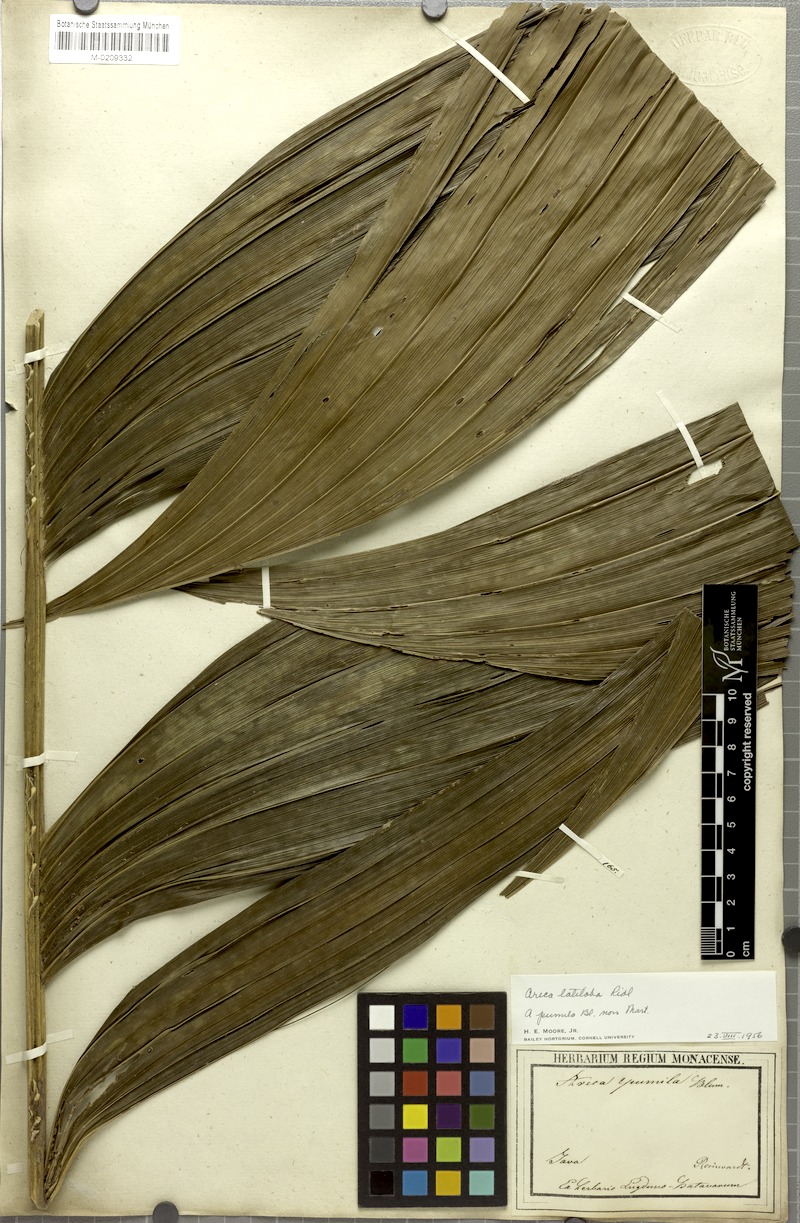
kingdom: Plantae
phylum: Tracheophyta
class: Liliopsida
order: Arecales
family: Arecaceae
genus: Nenga
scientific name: Nenga pumila
